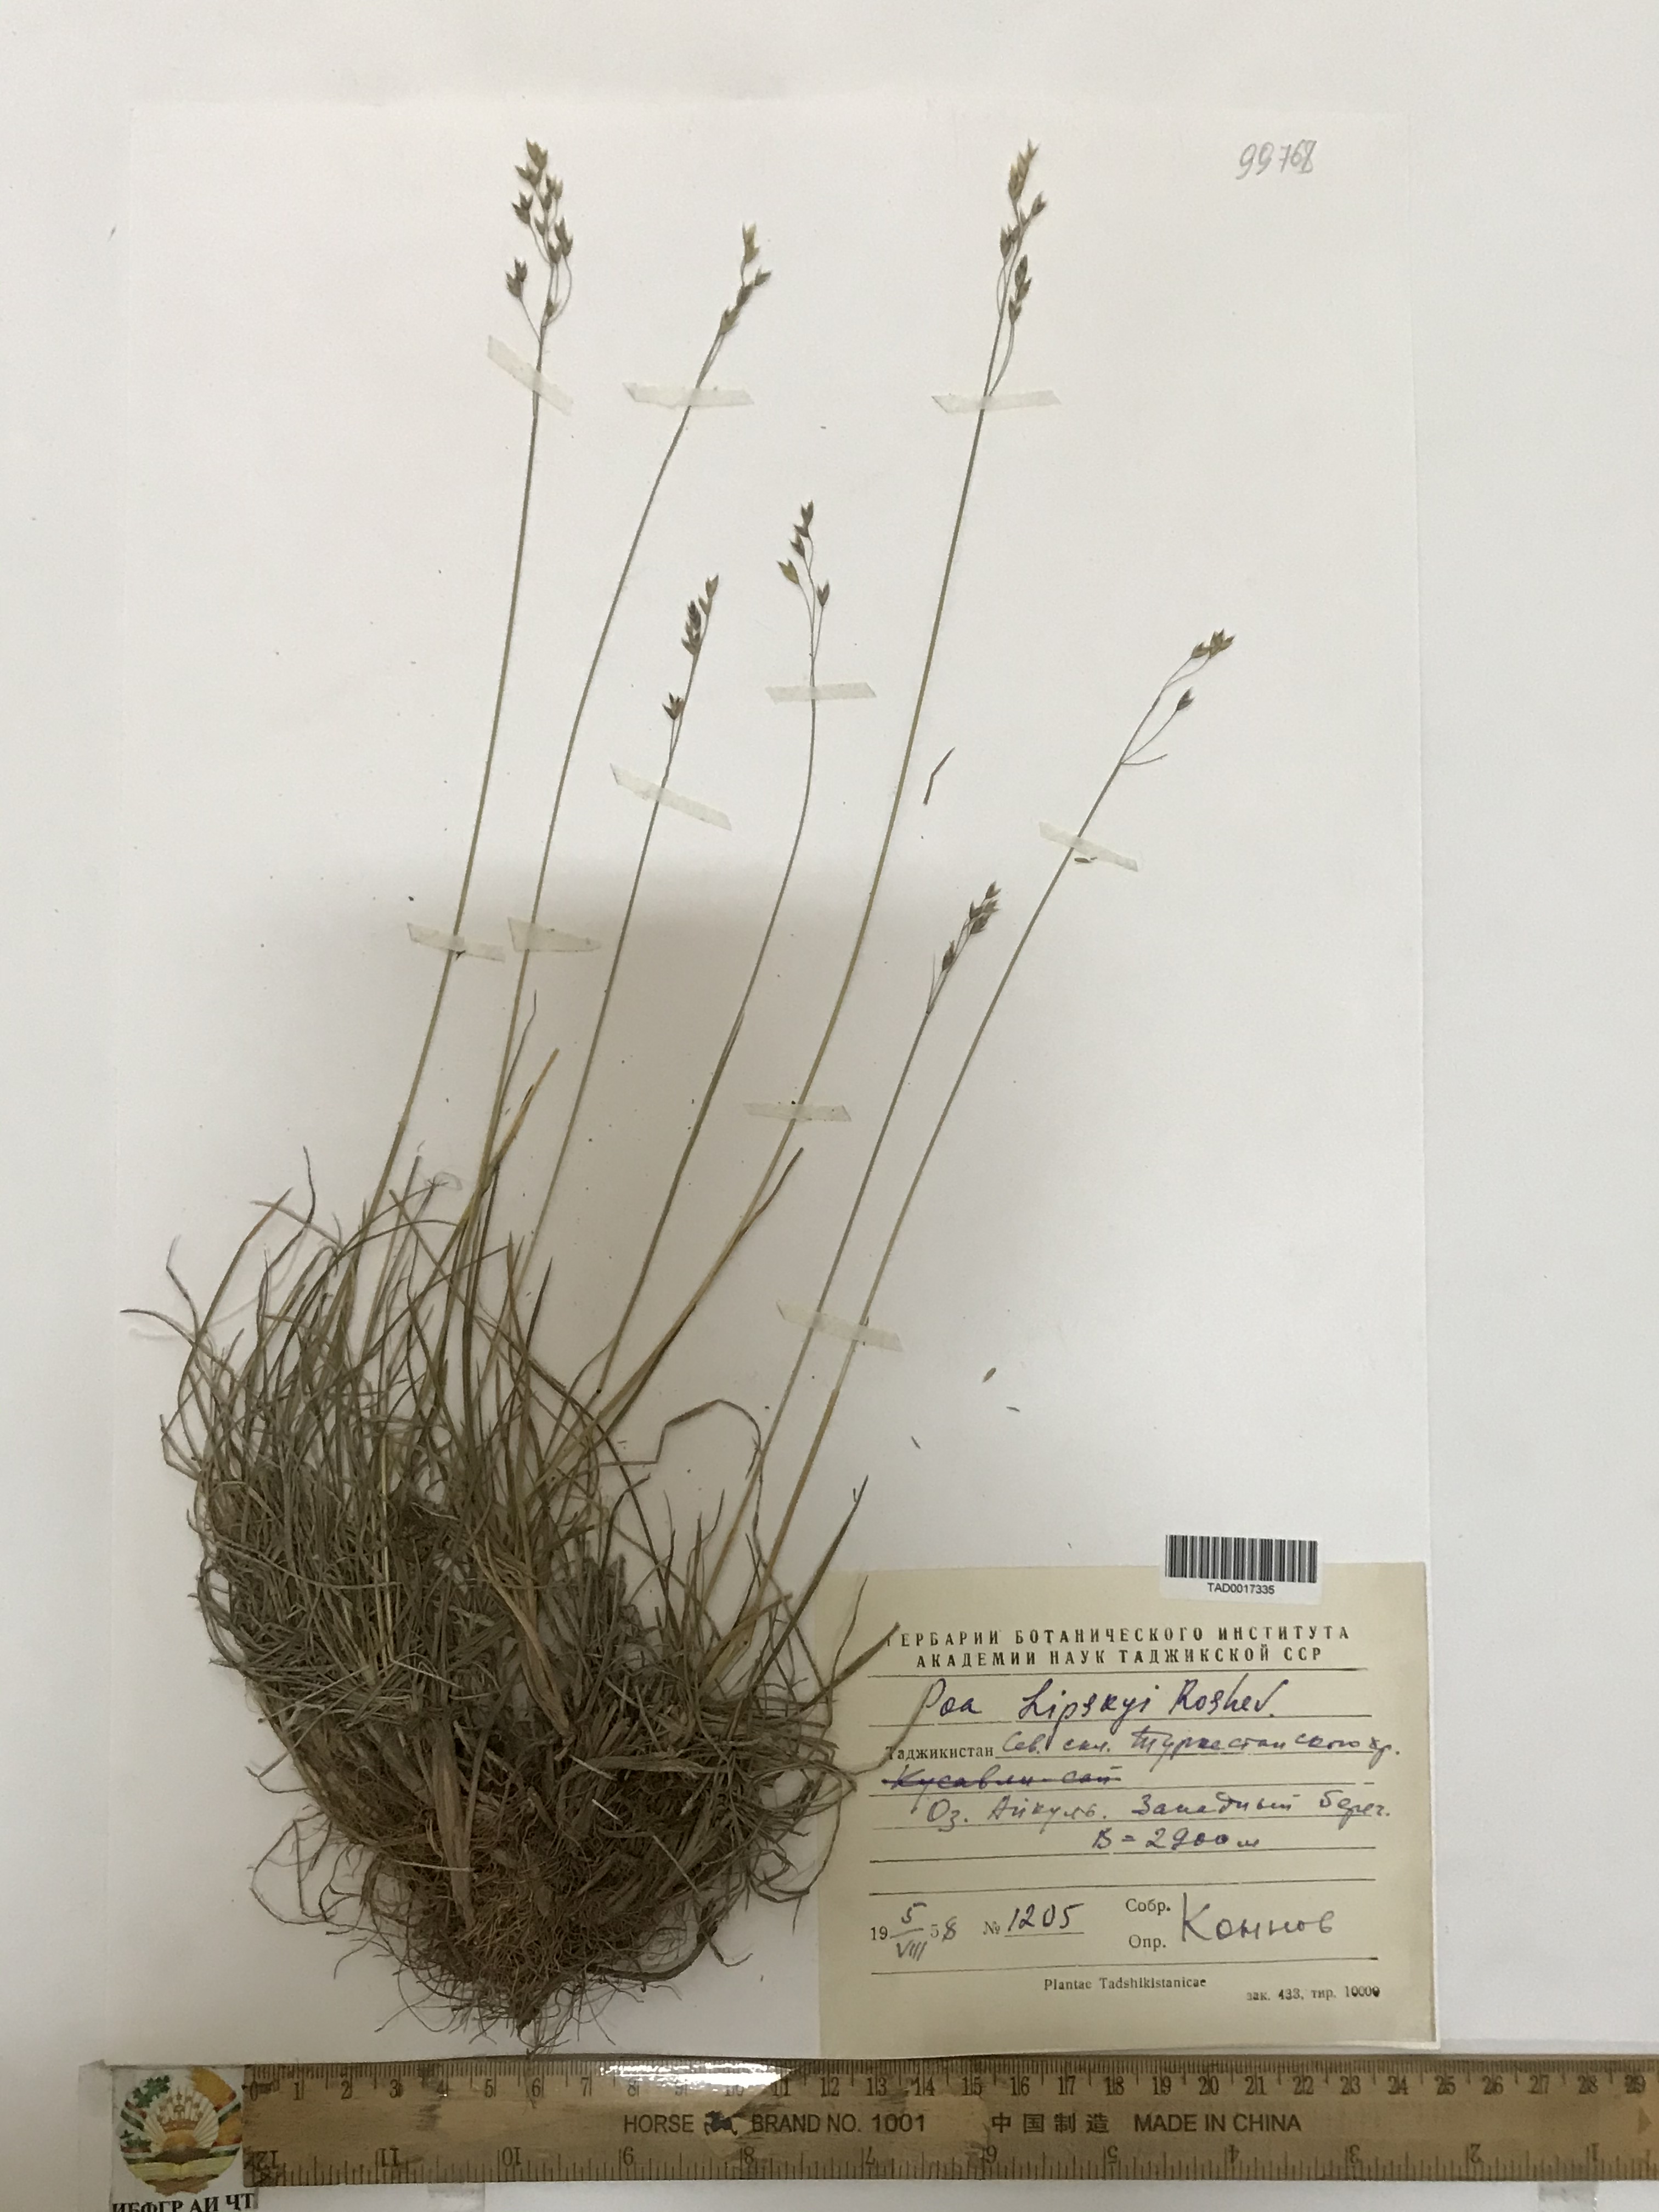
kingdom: Plantae
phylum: Tracheophyta
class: Liliopsida
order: Poales
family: Poaceae
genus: Poa
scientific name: Poa lipskyi
